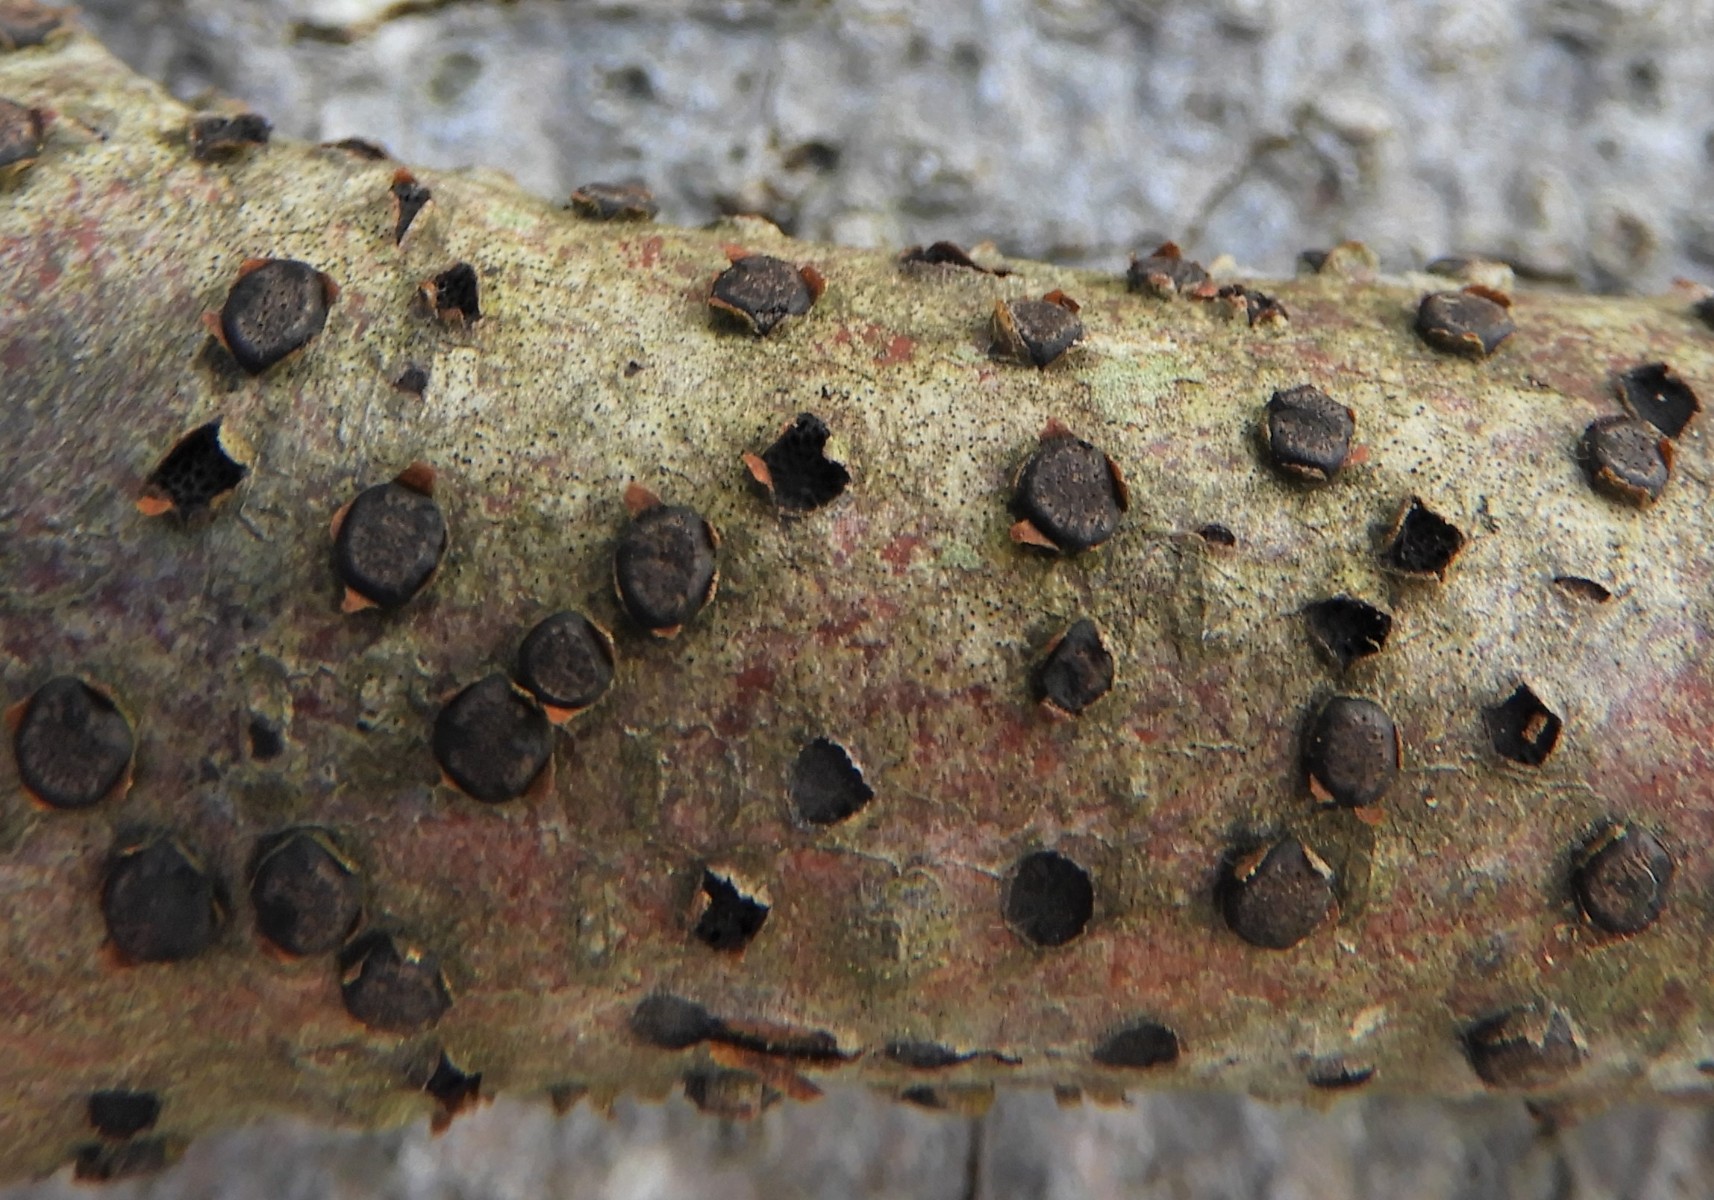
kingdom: Fungi
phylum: Ascomycota
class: Sordariomycetes
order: Xylariales
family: Diatrypaceae
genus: Diatrype
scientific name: Diatrype disciformis
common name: kant-kulskorpe
